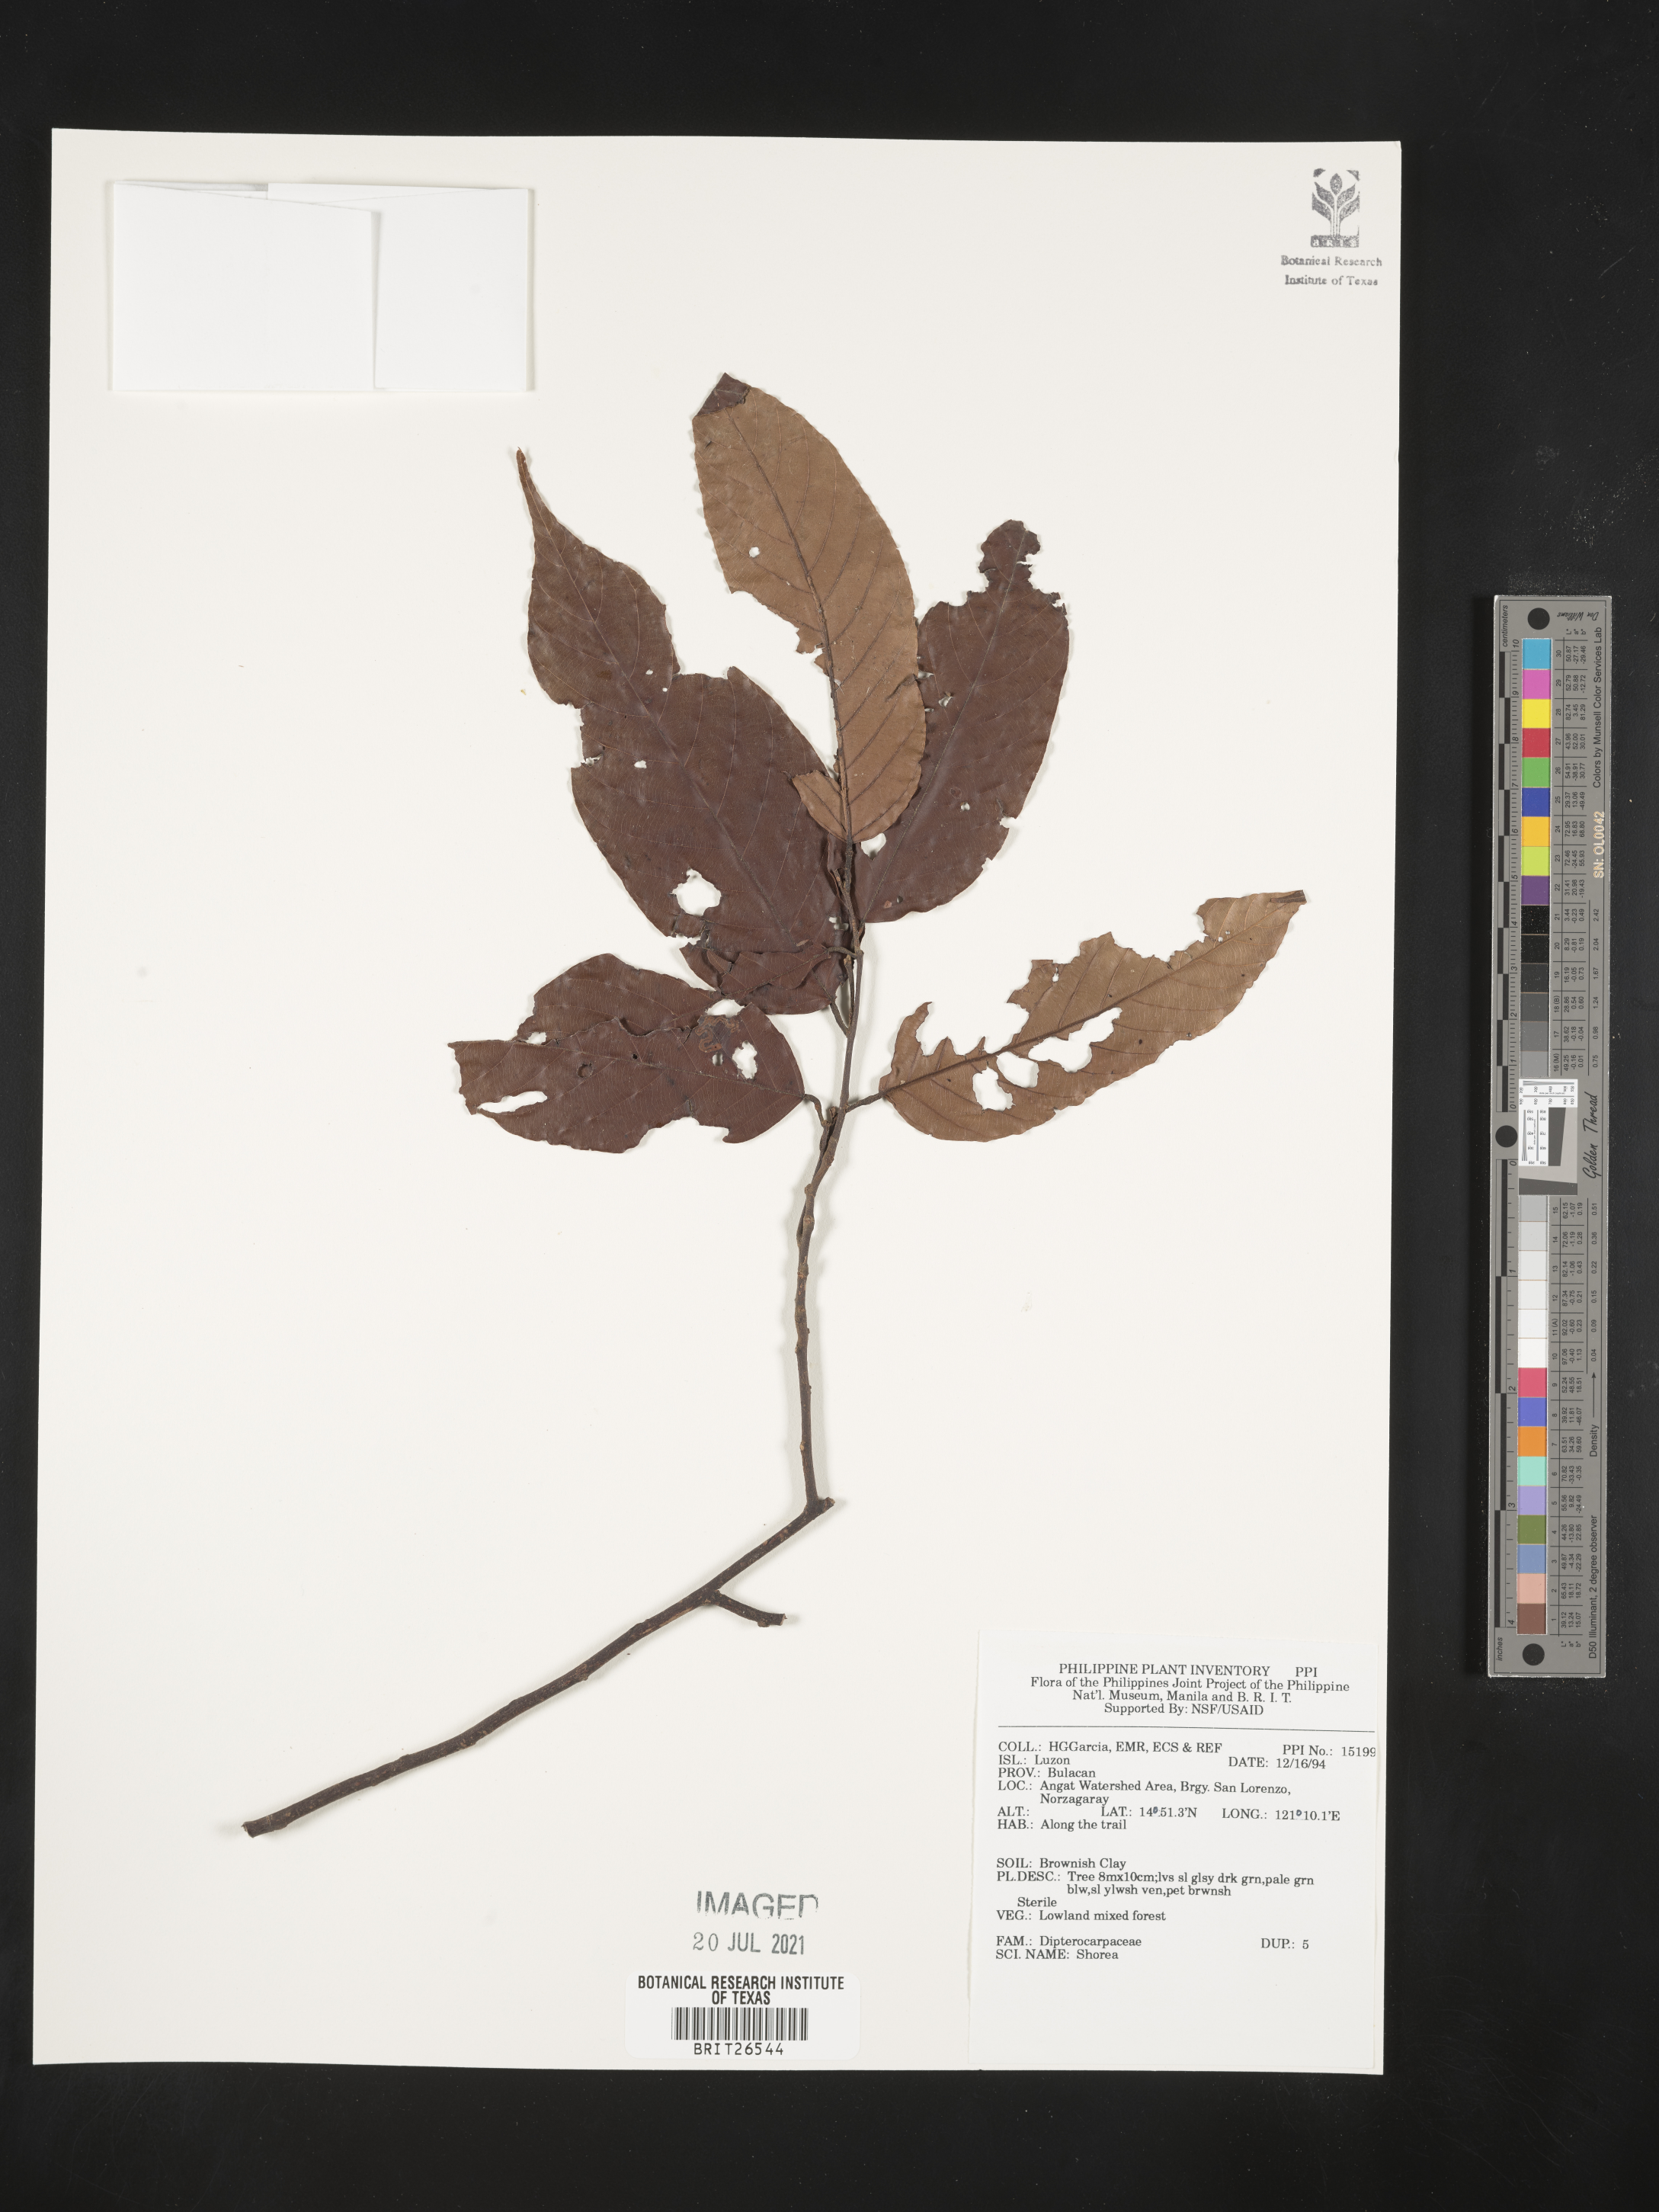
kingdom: Plantae
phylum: Tracheophyta
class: Magnoliopsida
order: Malvales
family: Dipterocarpaceae
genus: Shorea
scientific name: Shorea
